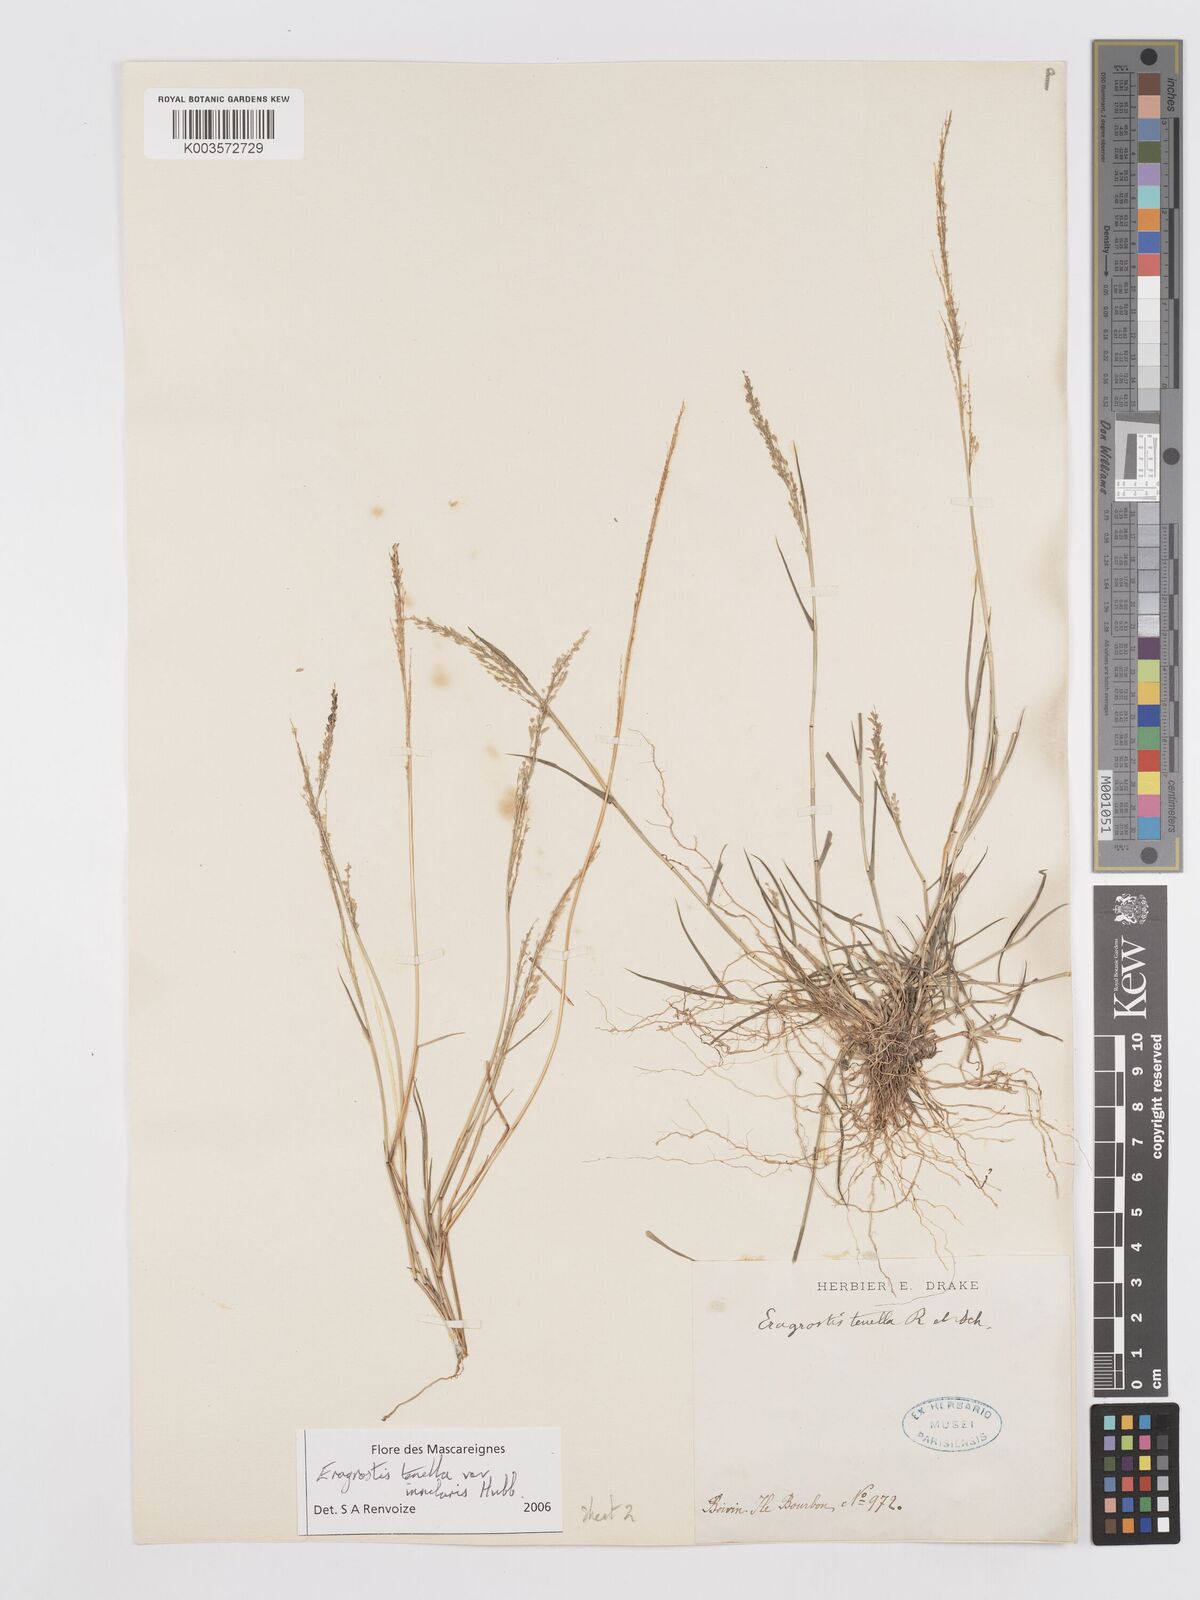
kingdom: Plantae
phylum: Tracheophyta
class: Liliopsida
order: Poales
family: Poaceae
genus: Eragrostis
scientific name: Eragrostis tenella
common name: Japanese lovegrass
